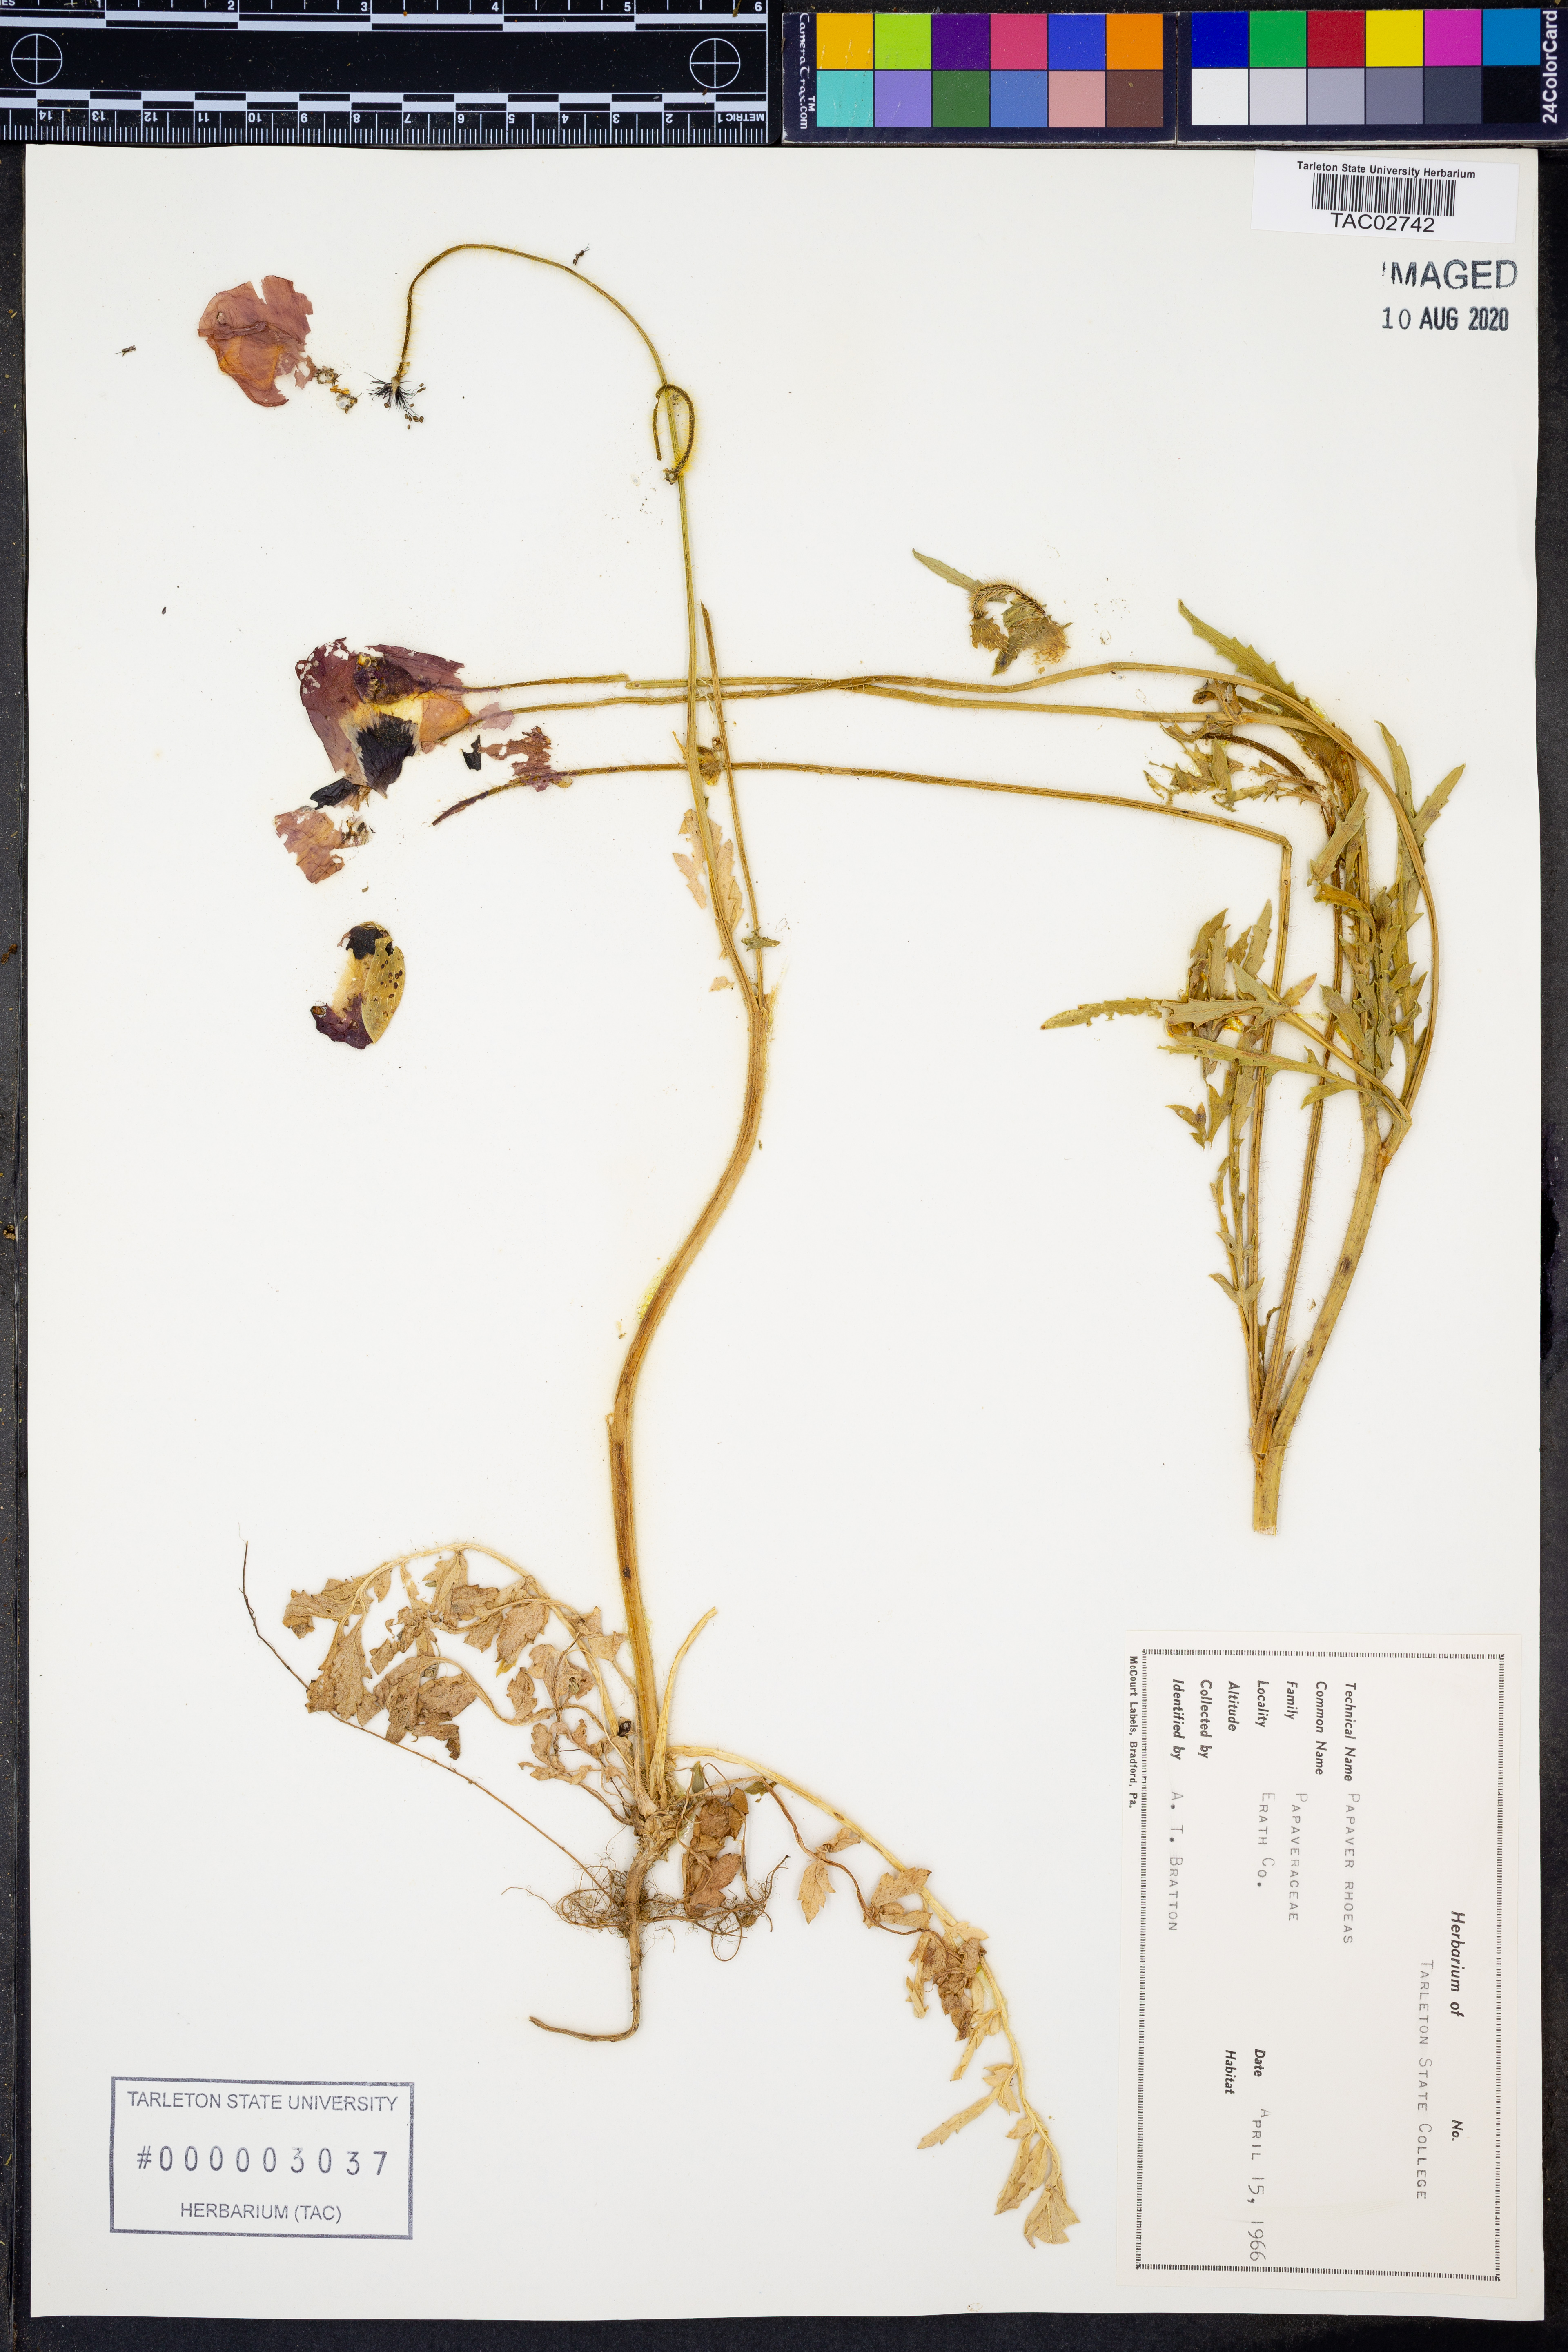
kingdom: Plantae
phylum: Tracheophyta
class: Magnoliopsida
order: Ranunculales
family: Papaveraceae
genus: Papaver
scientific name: Papaver rhoeas
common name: Corn poppy
